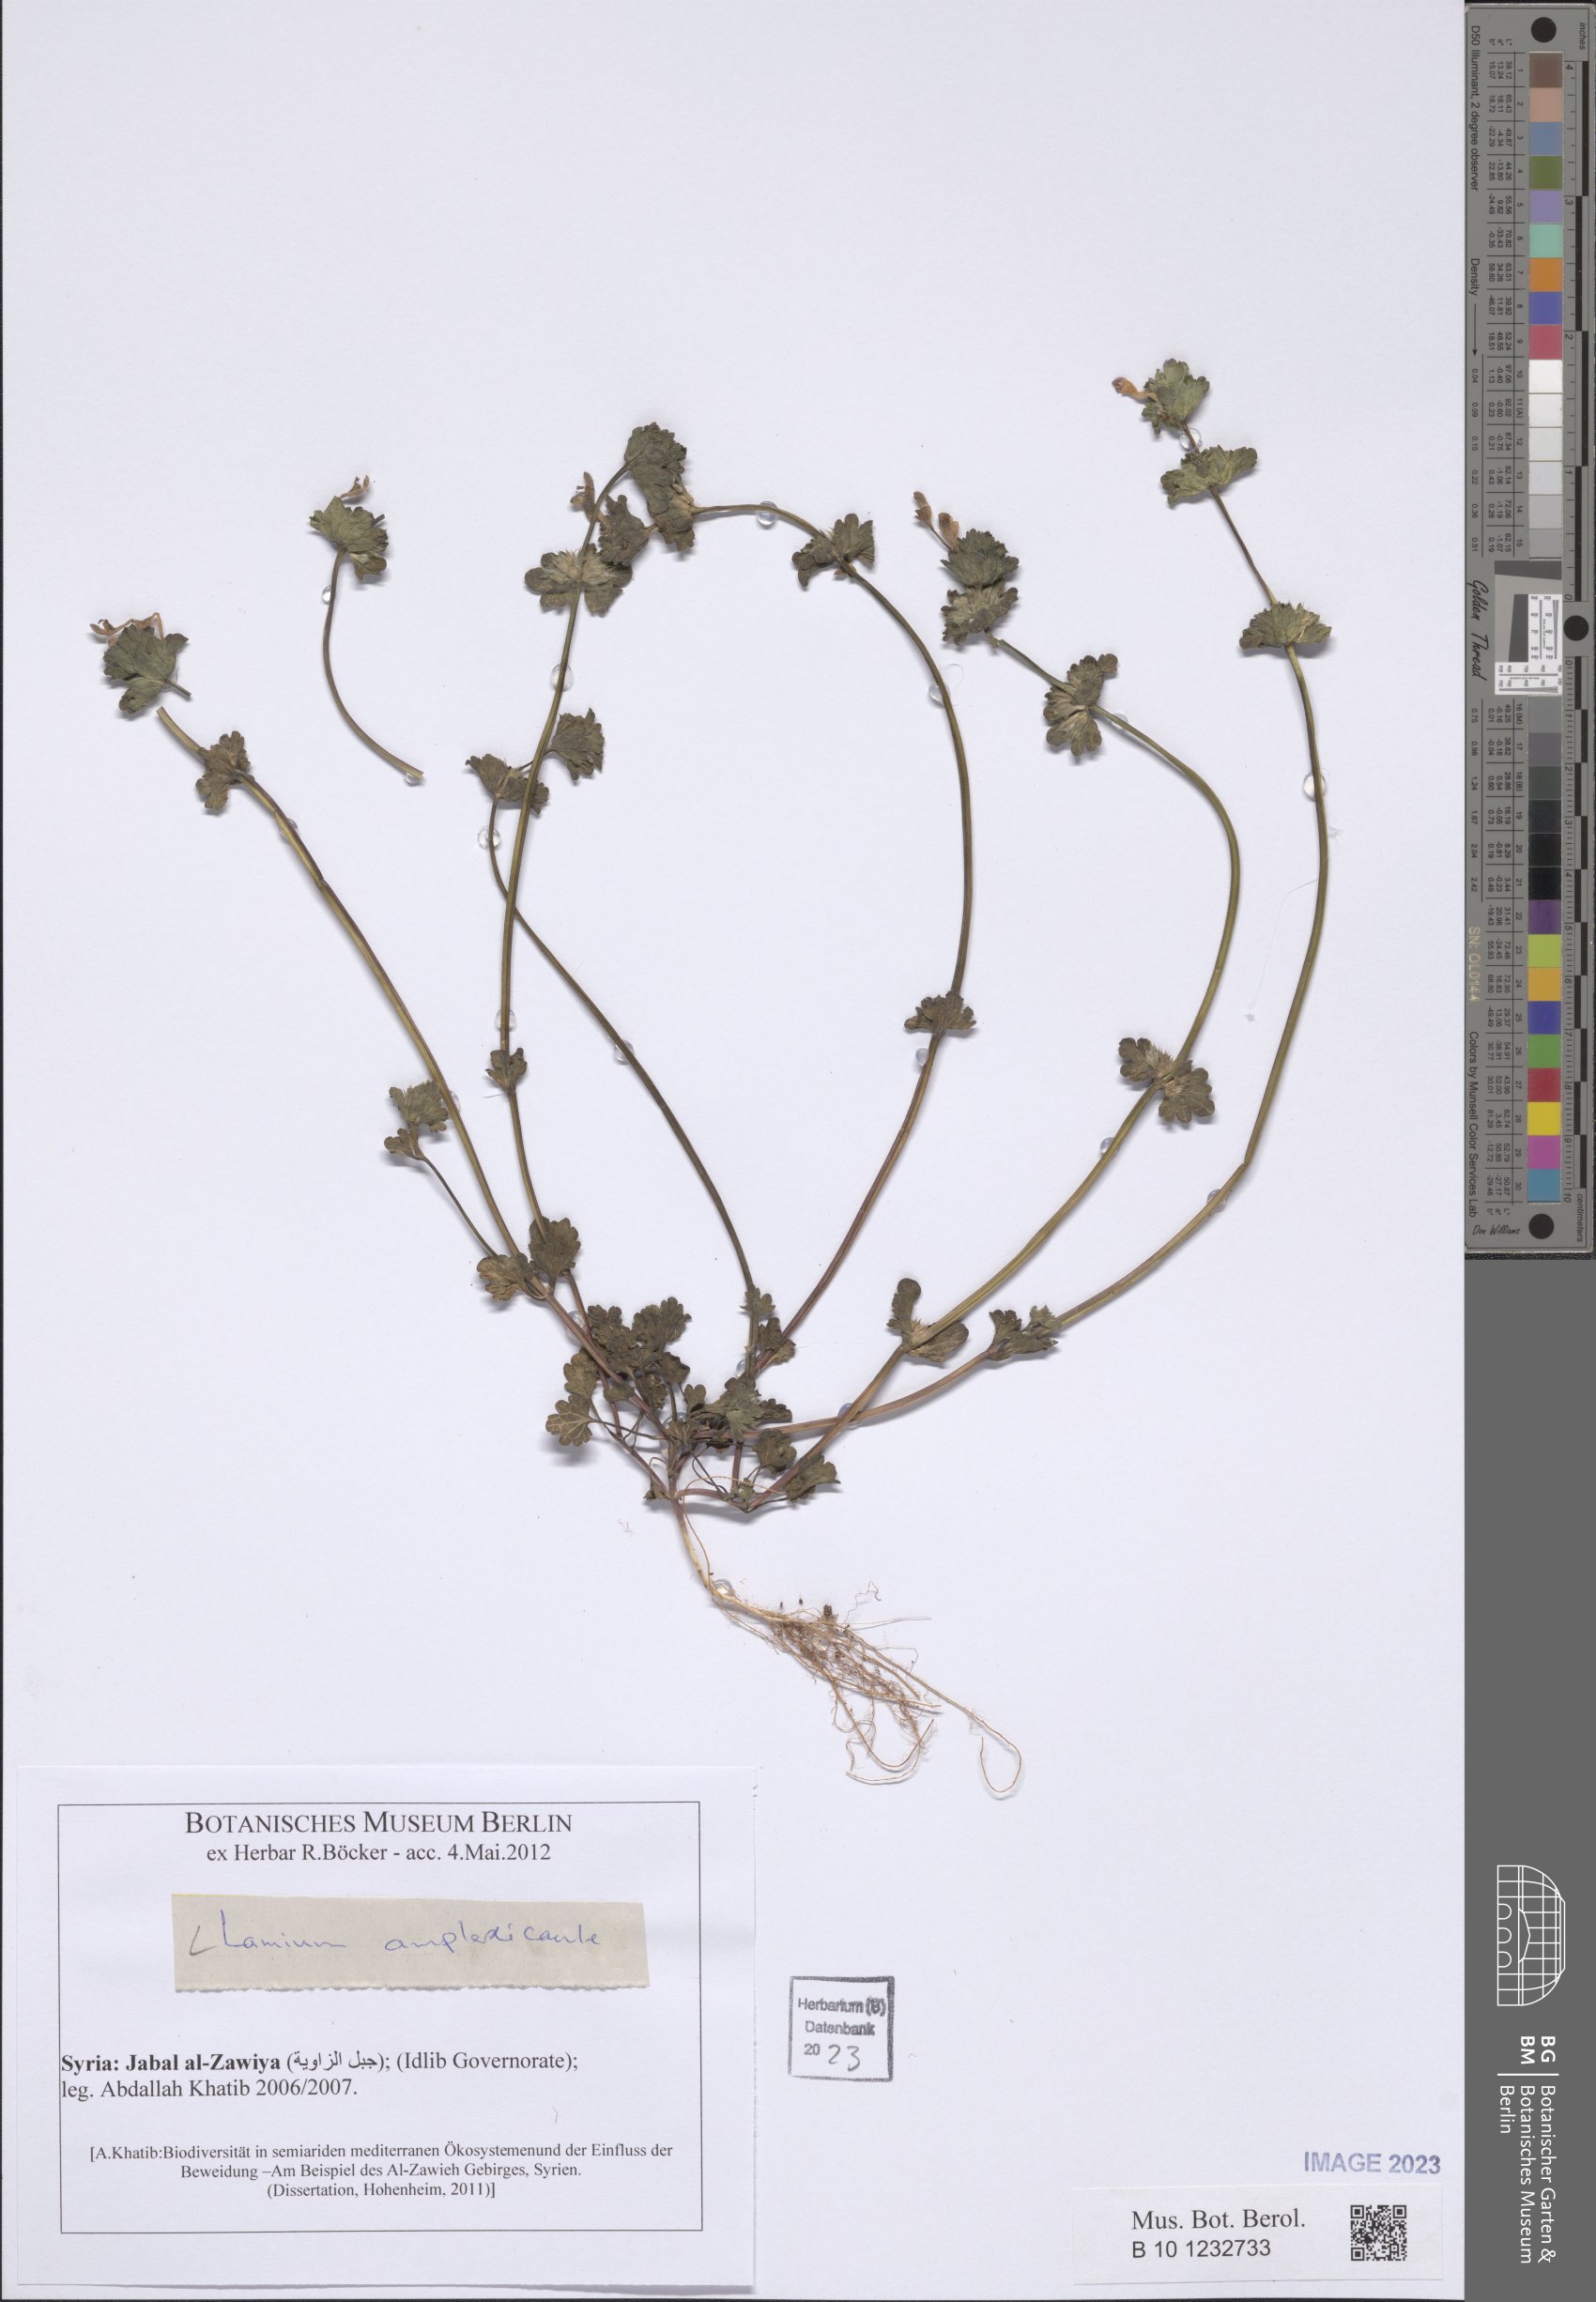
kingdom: Plantae
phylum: Tracheophyta
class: Magnoliopsida
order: Lamiales
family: Lamiaceae
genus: Lamium
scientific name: Lamium amplexicaule
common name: Henbit dead-nettle
